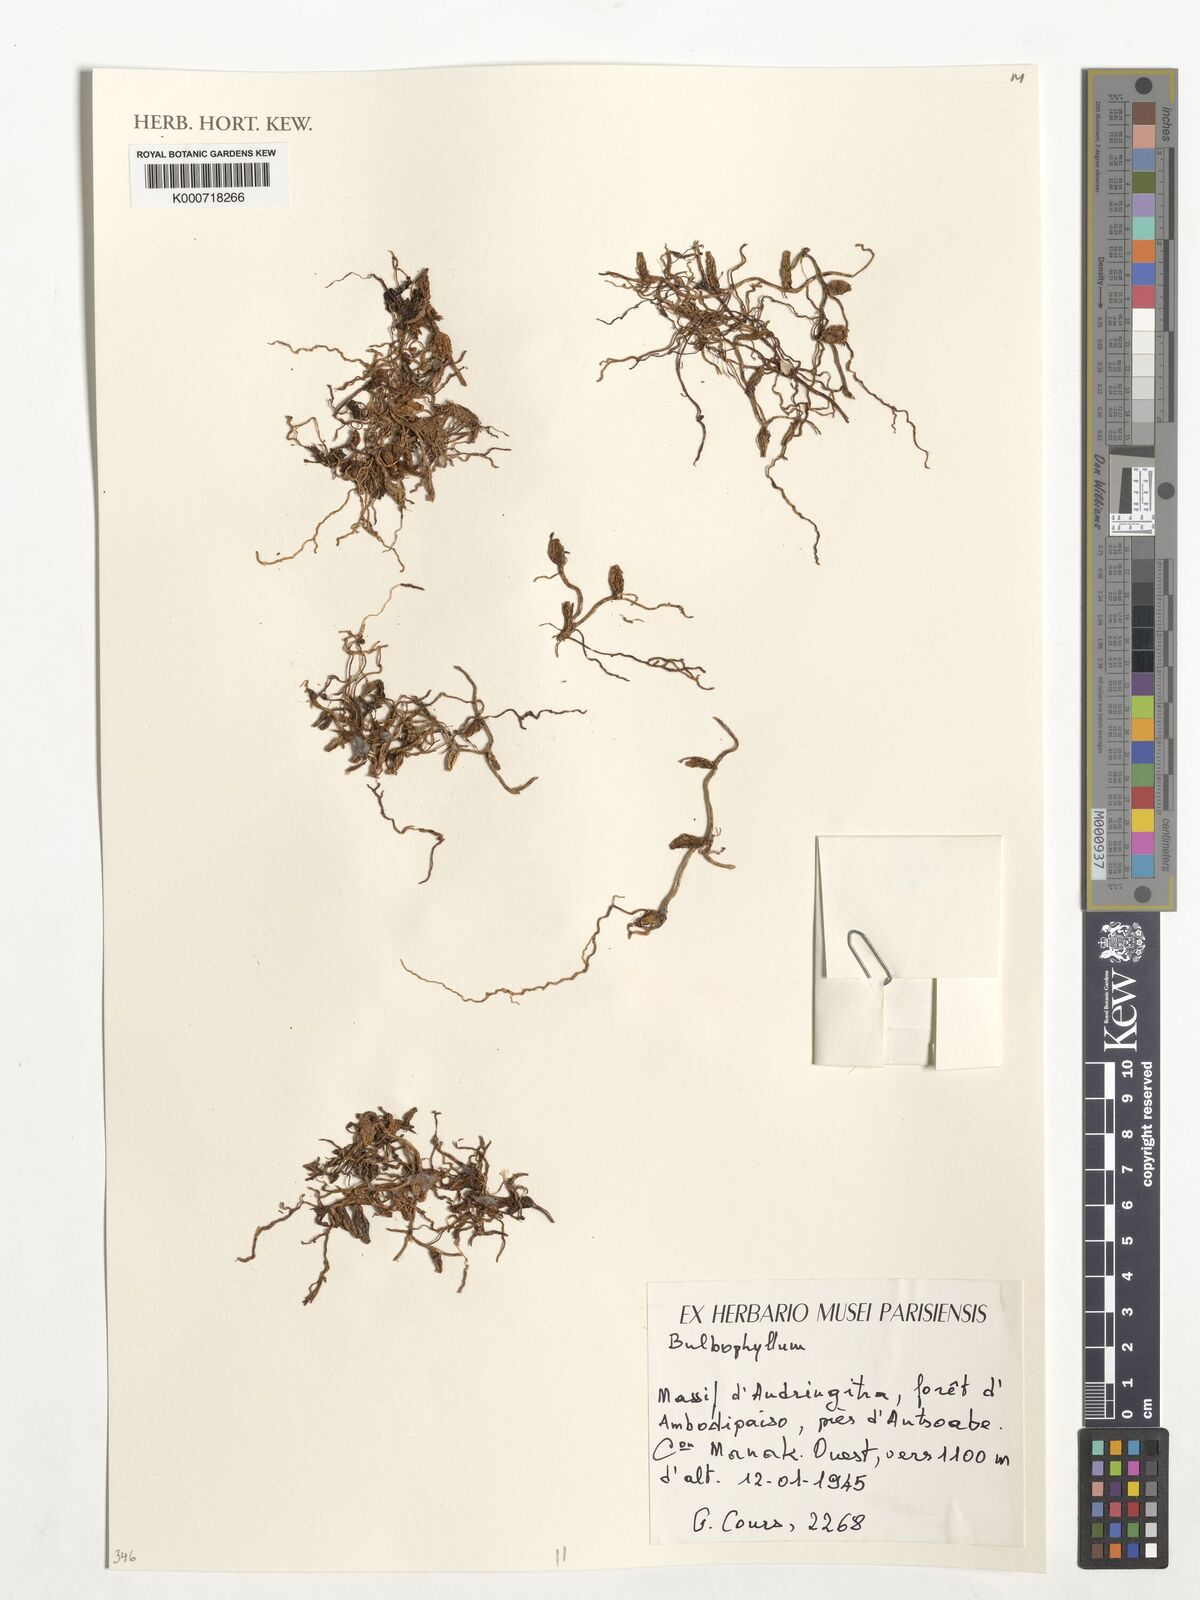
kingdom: Plantae
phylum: Tracheophyta
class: Liliopsida
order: Asparagales
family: Orchidaceae
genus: Bulbophyllum
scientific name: Bulbophyllum
